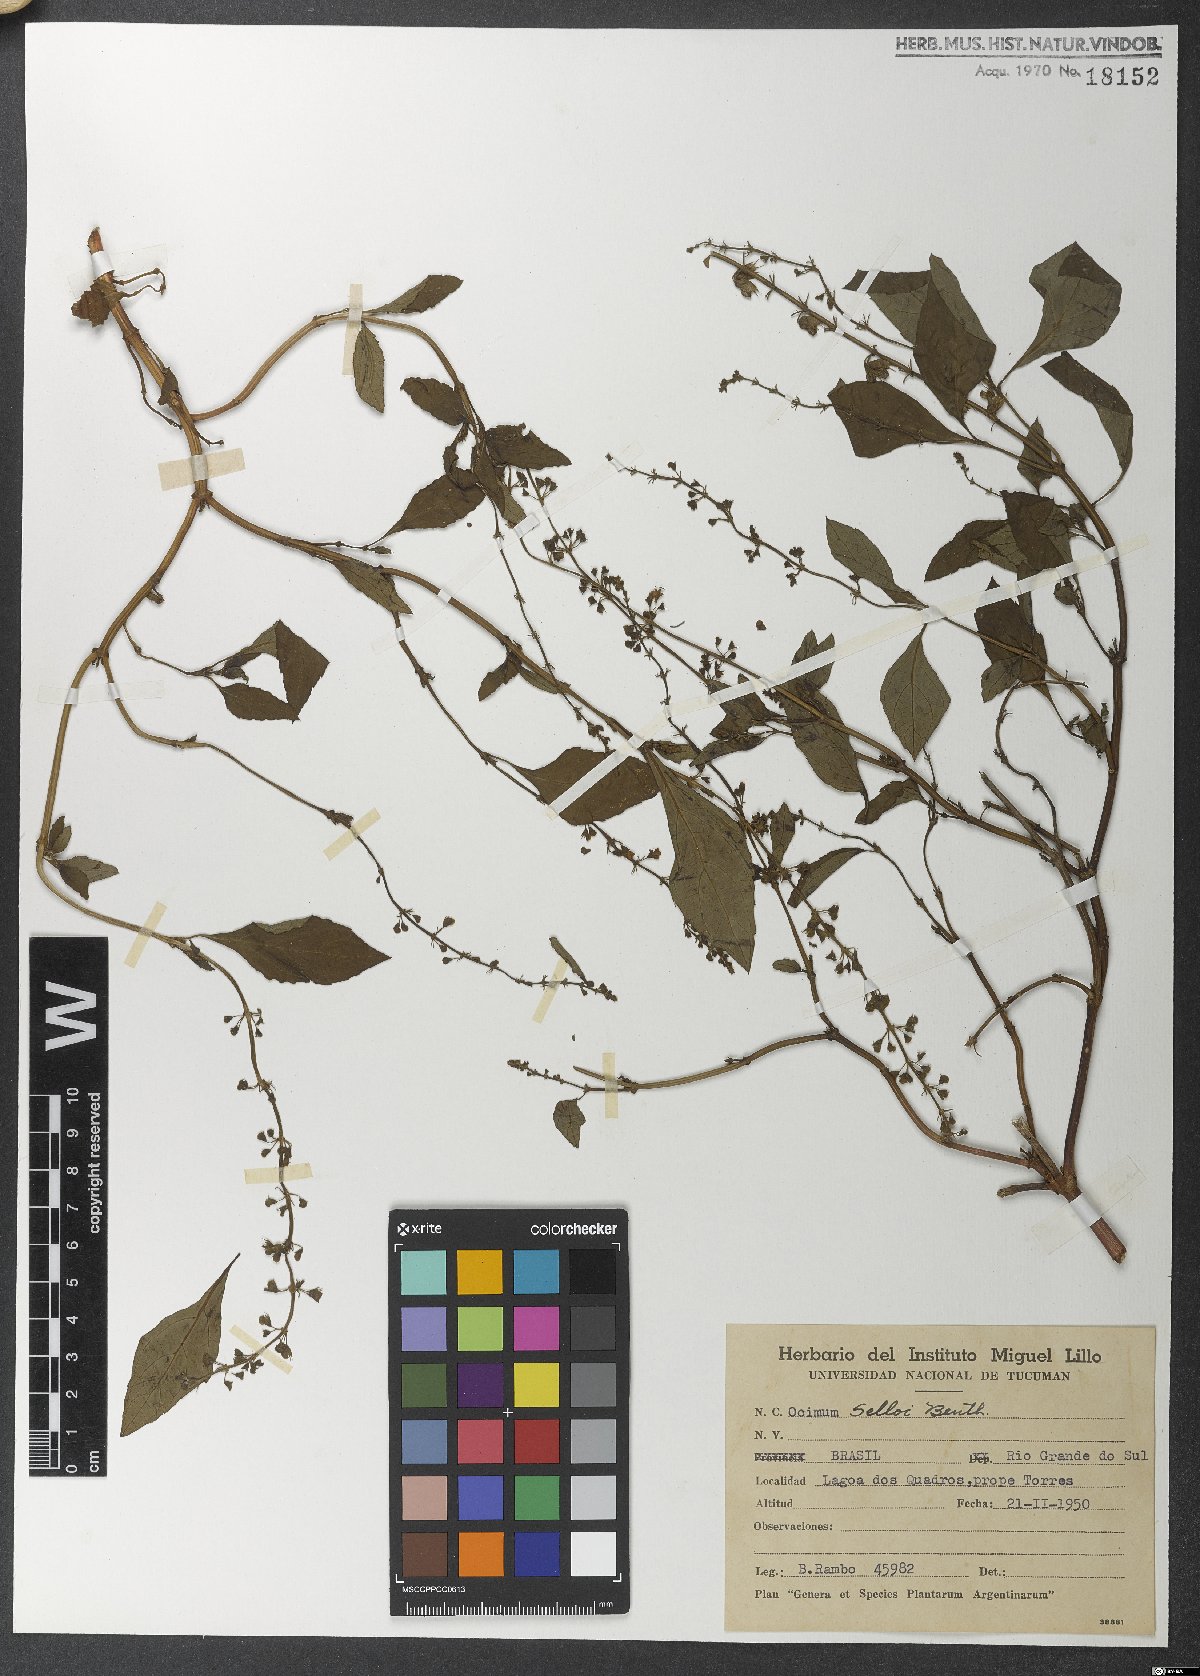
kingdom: Plantae
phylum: Tracheophyta
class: Magnoliopsida
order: Lamiales
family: Lamiaceae
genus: Ocimum
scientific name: Ocimum
